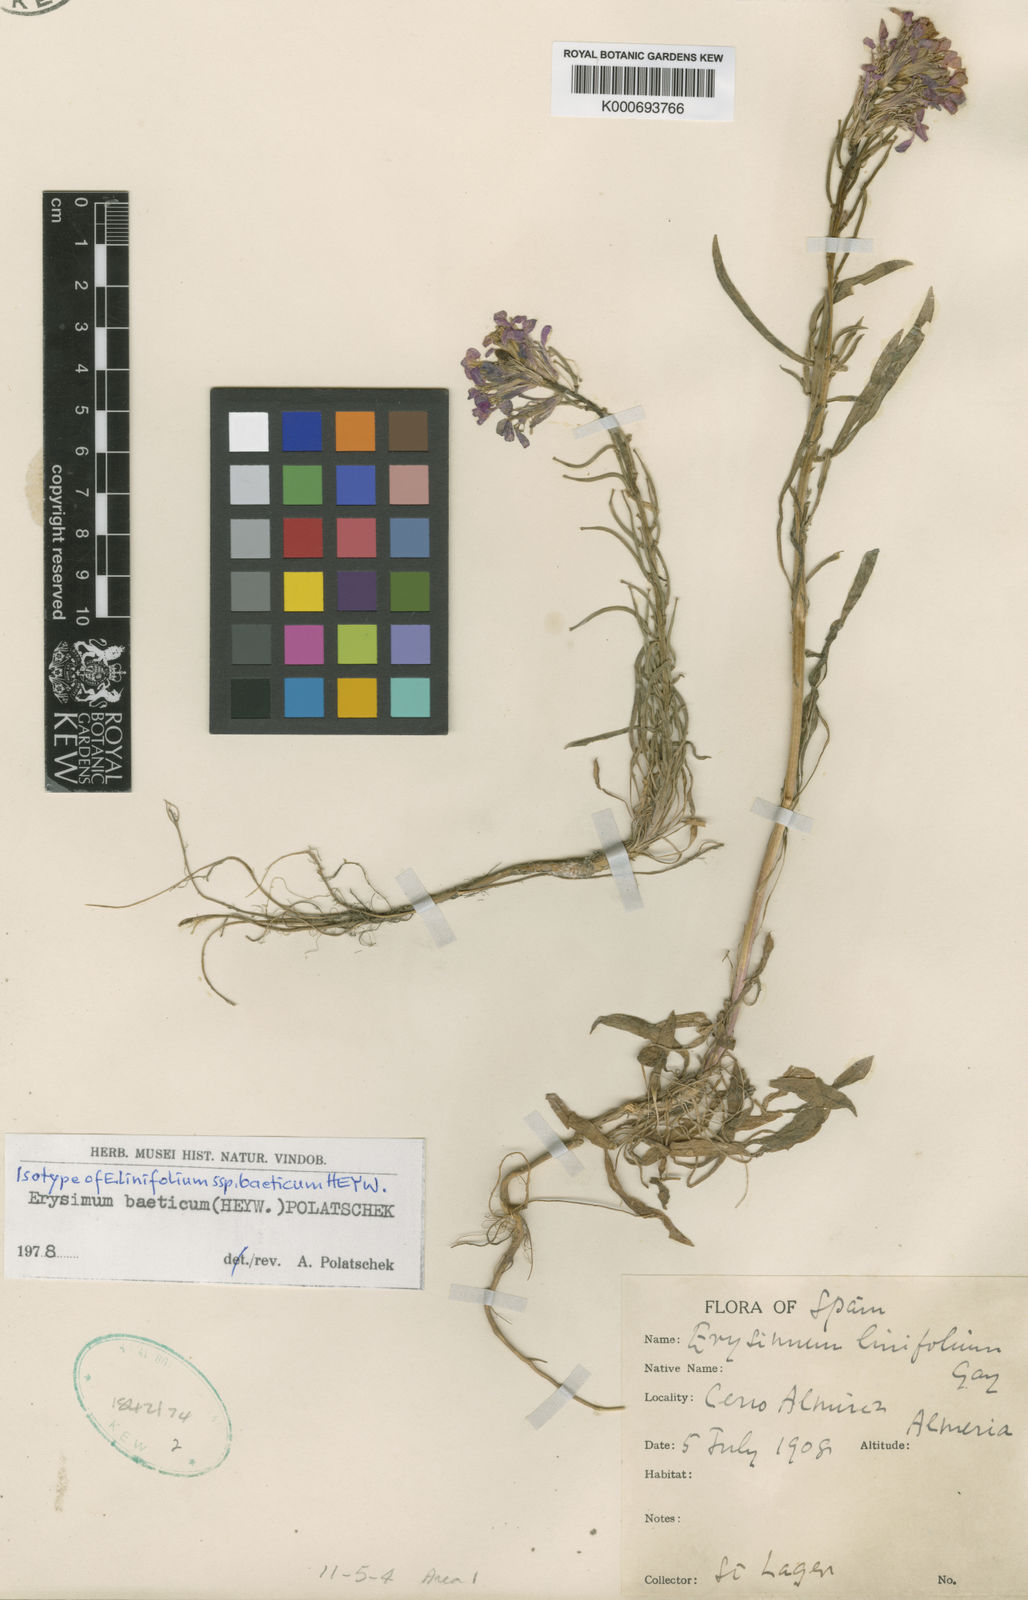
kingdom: Plantae
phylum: Tracheophyta
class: Magnoliopsida
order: Brassicales
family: Brassicaceae
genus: Erysimum
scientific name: Erysimum baeticum
